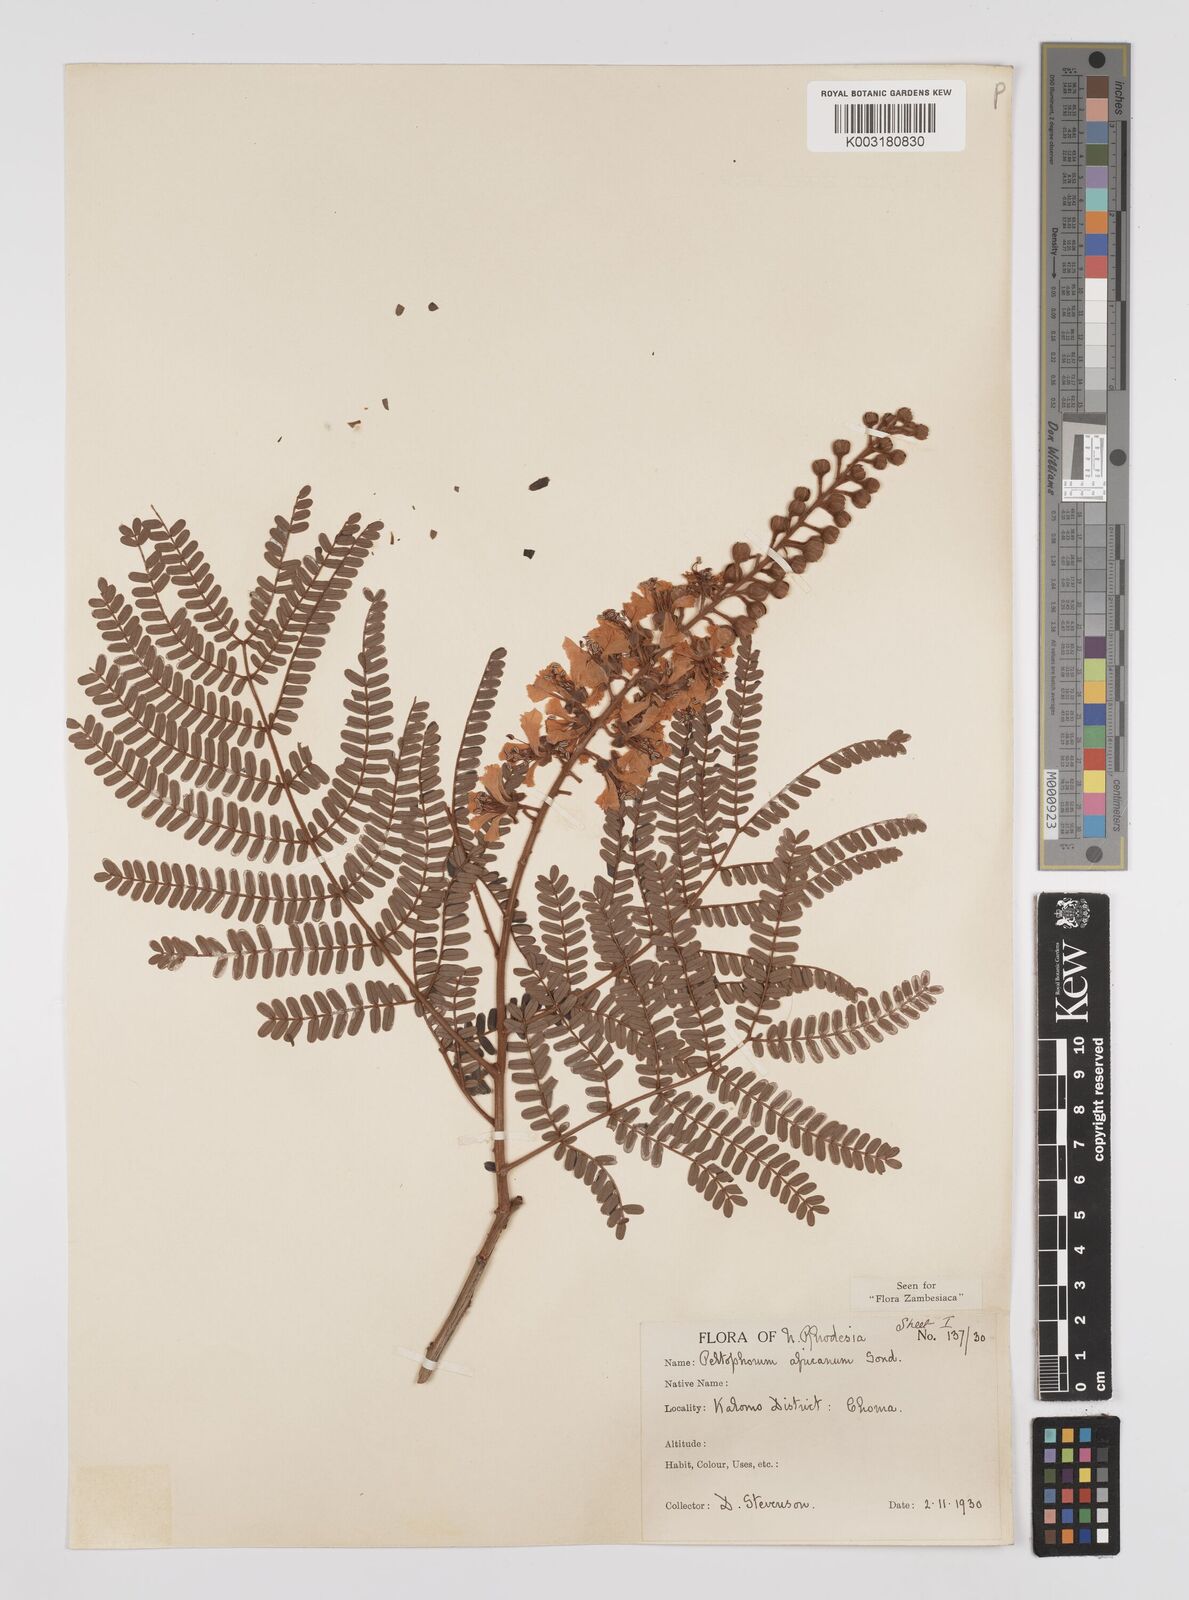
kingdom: Plantae
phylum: Tracheophyta
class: Magnoliopsida
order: Fabales
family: Fabaceae
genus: Peltophorum
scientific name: Peltophorum africanum
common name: African black wattle
